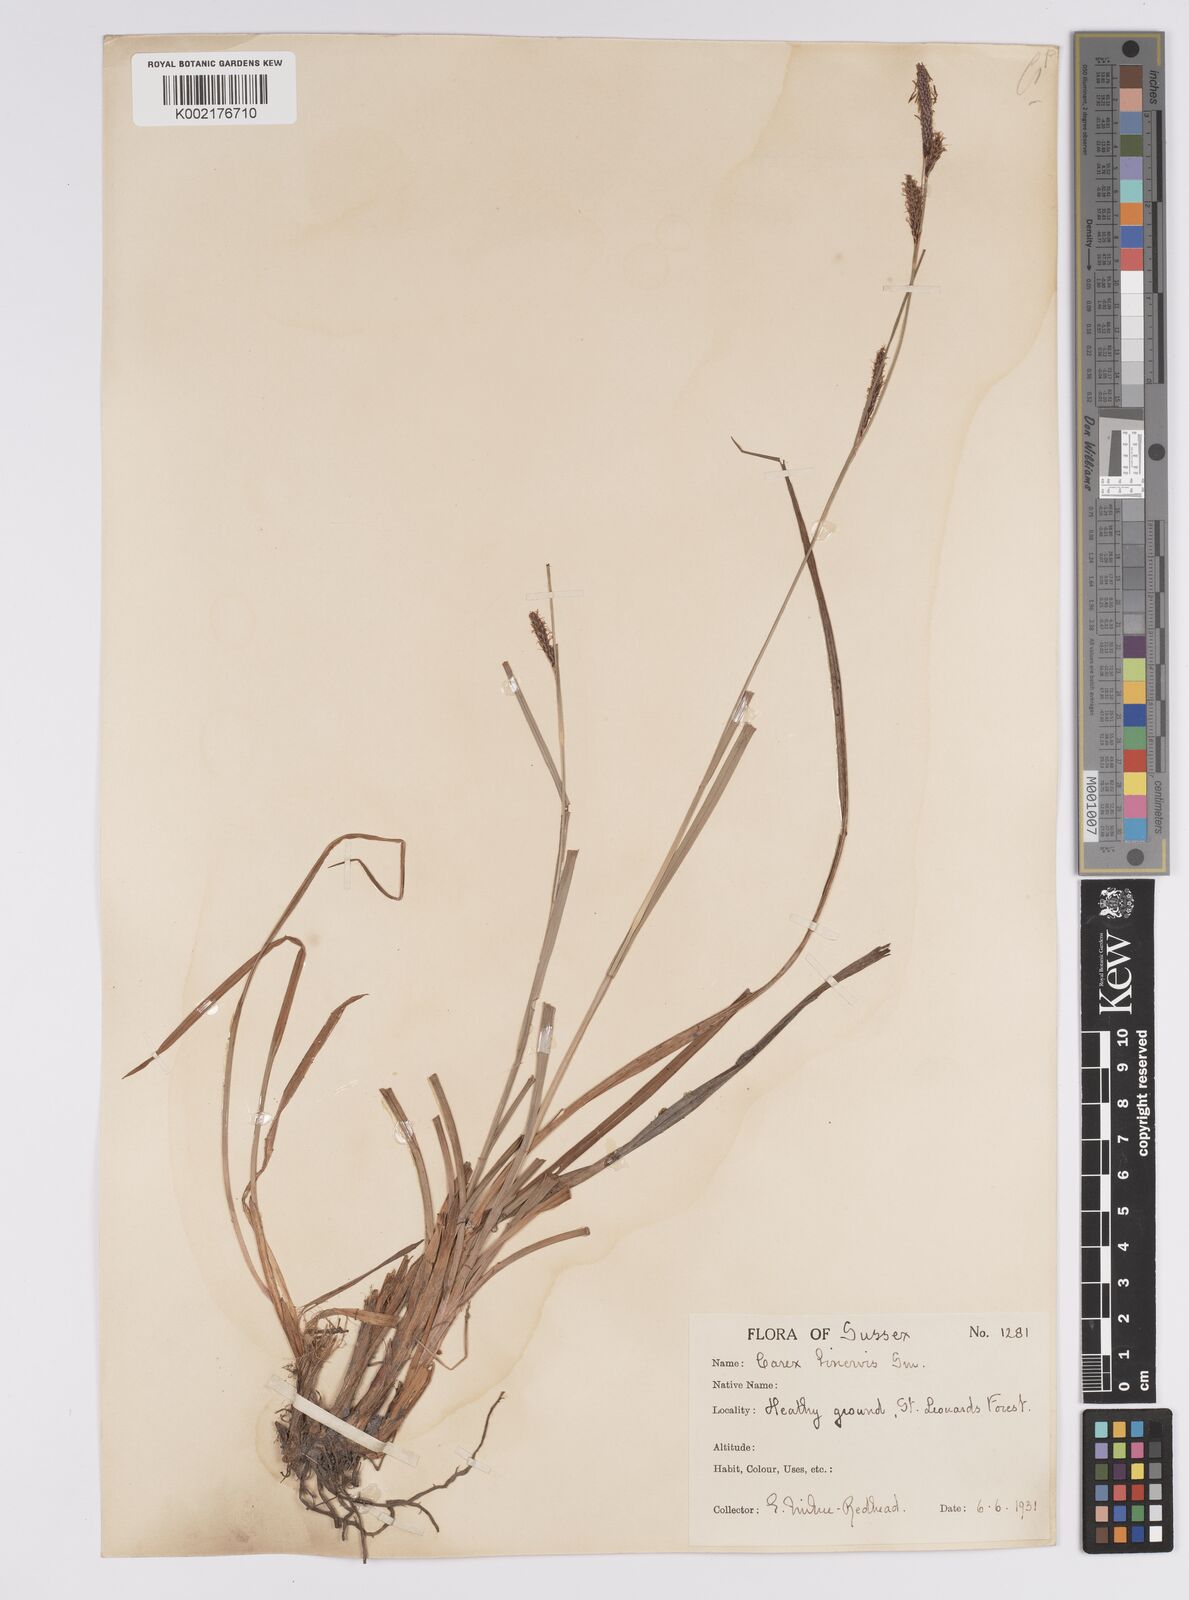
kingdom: Plantae
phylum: Tracheophyta
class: Liliopsida
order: Poales
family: Cyperaceae
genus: Carex
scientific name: Carex binervis
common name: Green-ribbed sedge
